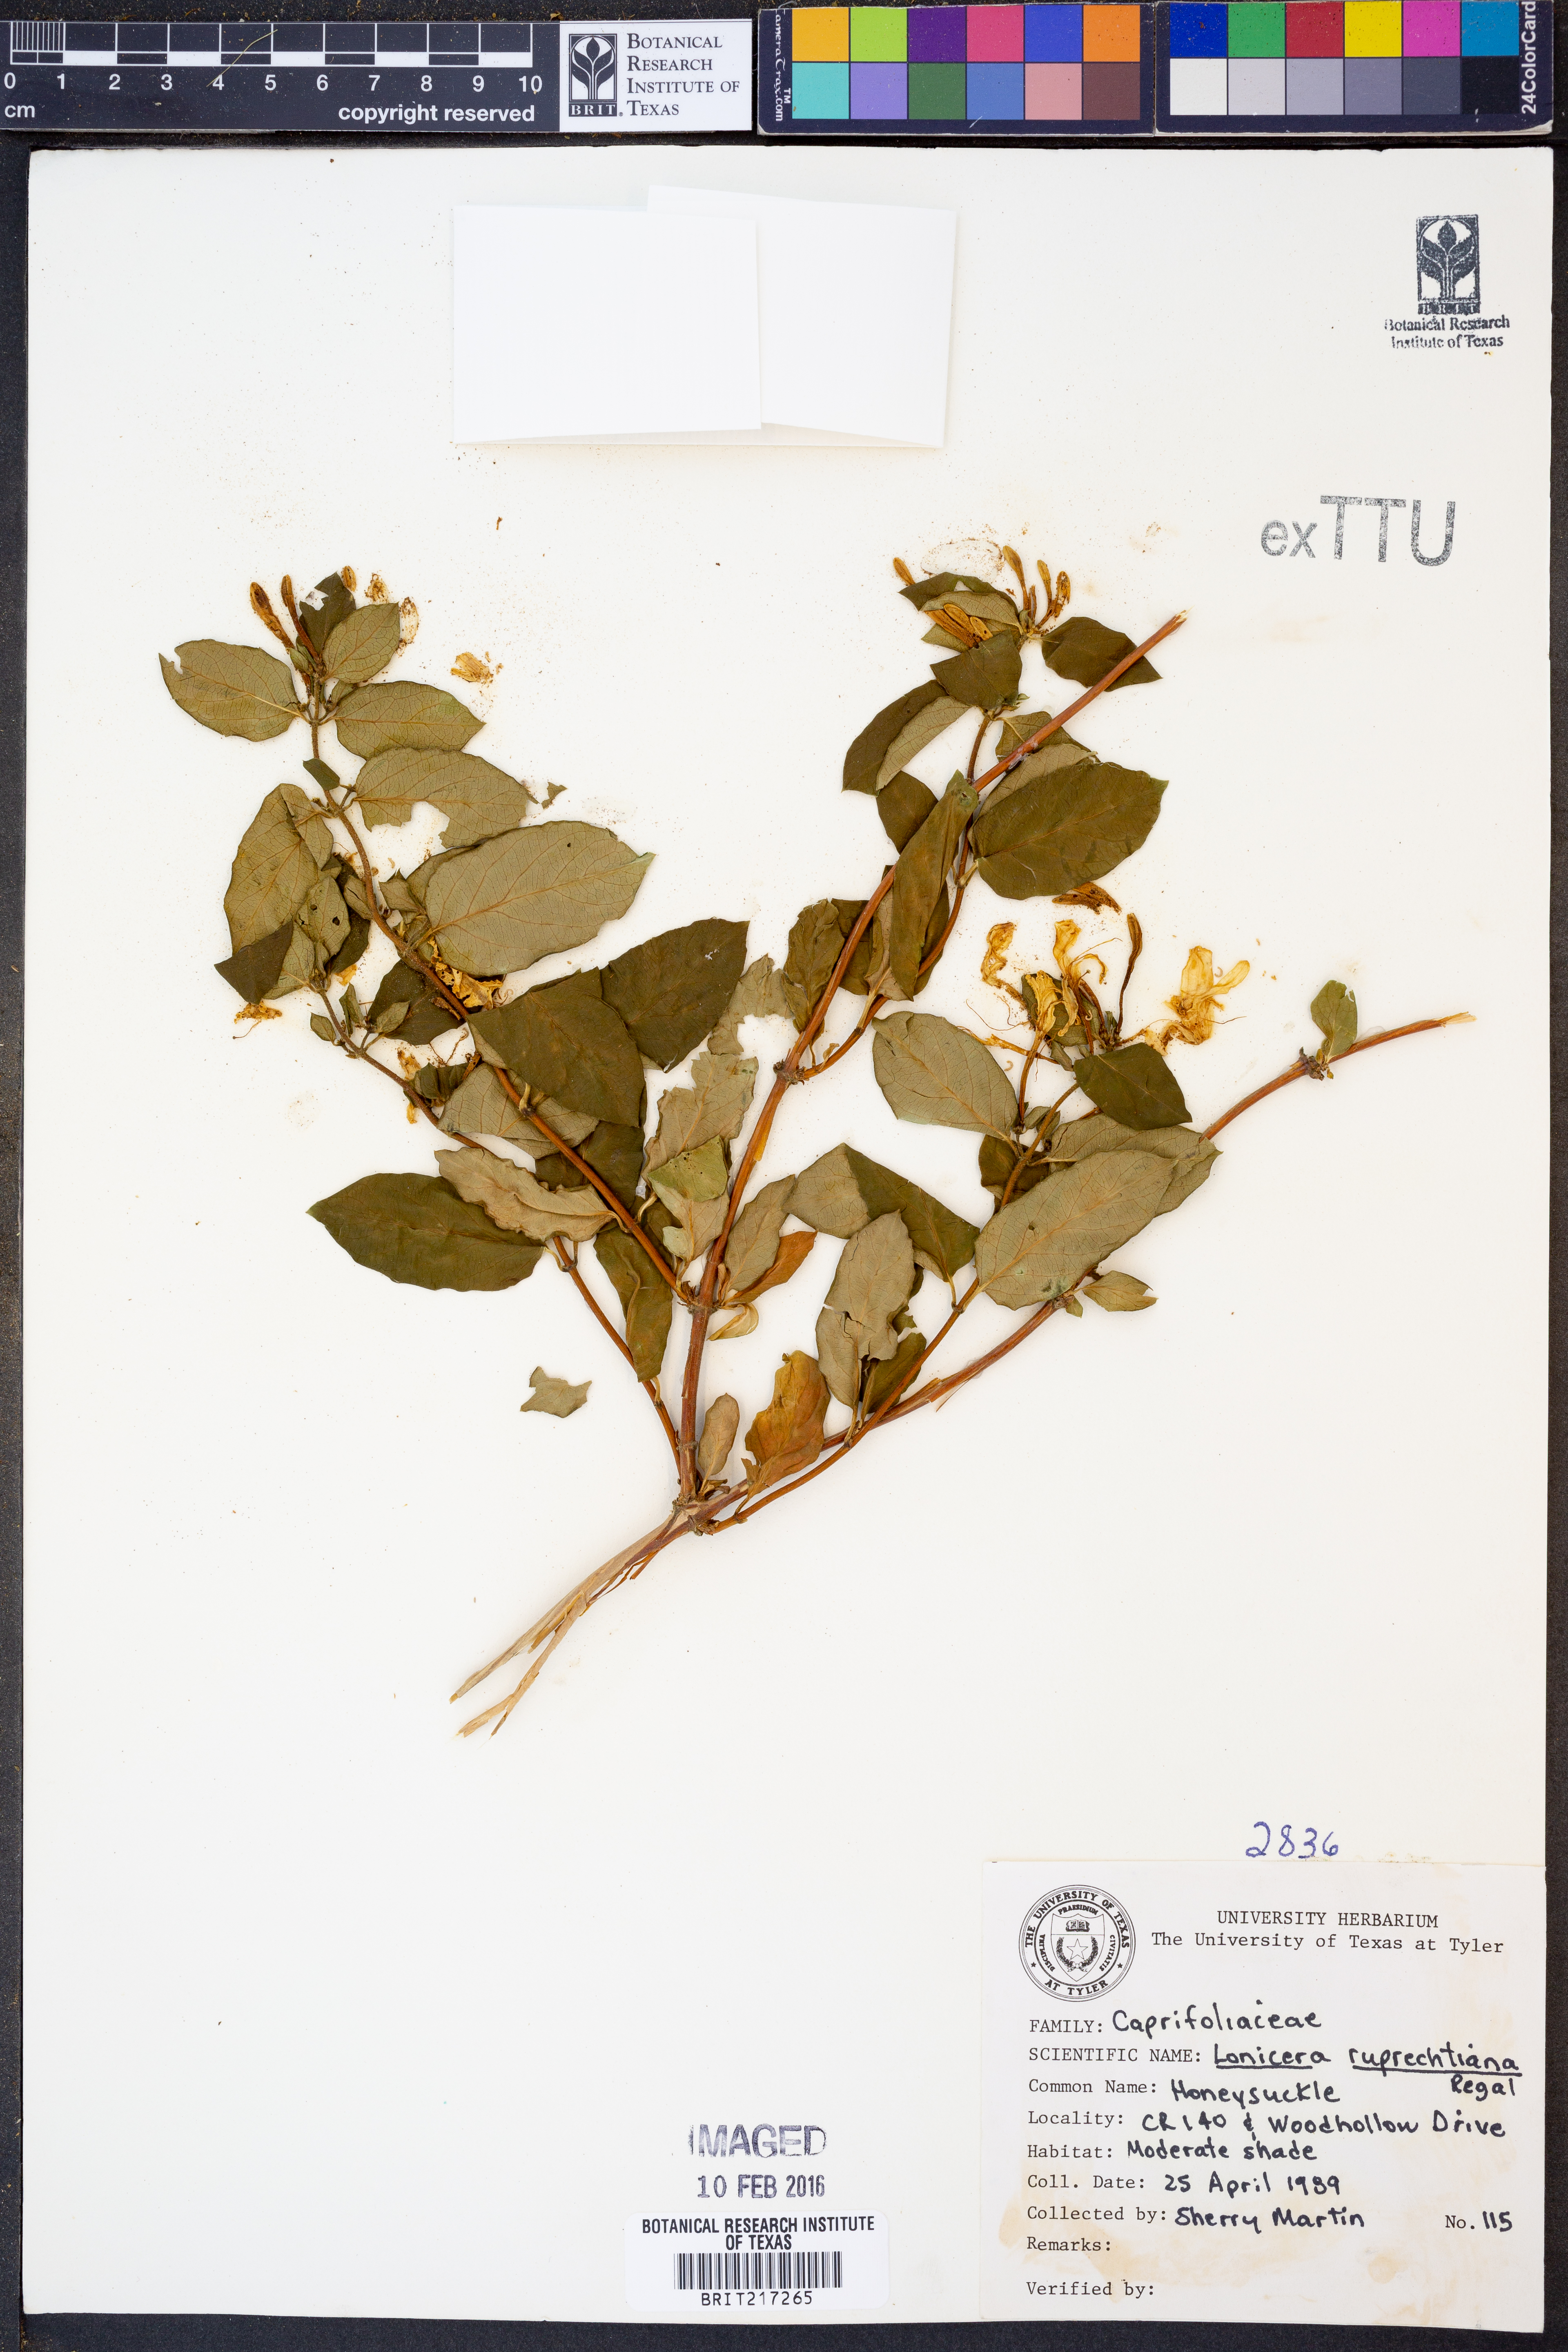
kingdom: Plantae
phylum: Tracheophyta
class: Magnoliopsida
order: Dipsacales
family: Caprifoliaceae
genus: Lonicera
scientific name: Lonicera ruprechtiana
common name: Manchurian honeysuckle
